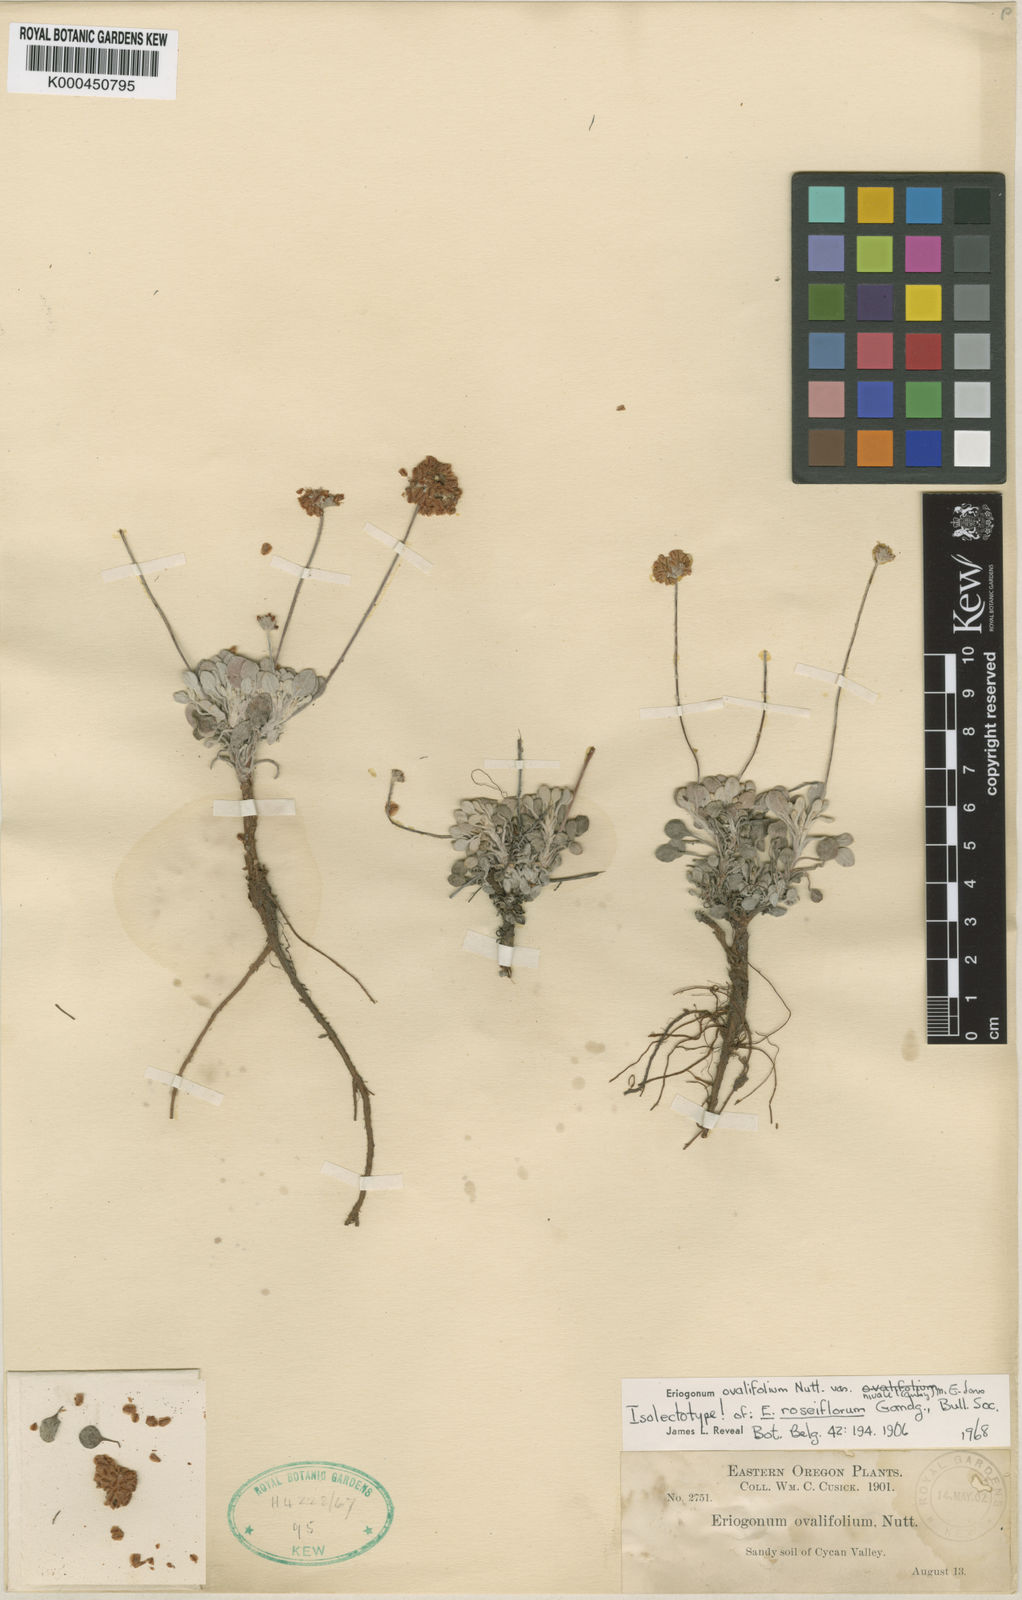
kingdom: Plantae
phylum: Tracheophyta
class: Magnoliopsida
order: Caryophyllales
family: Polygonaceae
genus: Eriogonum
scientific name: Eriogonum ovalifolium
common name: Cushion buckwheat
